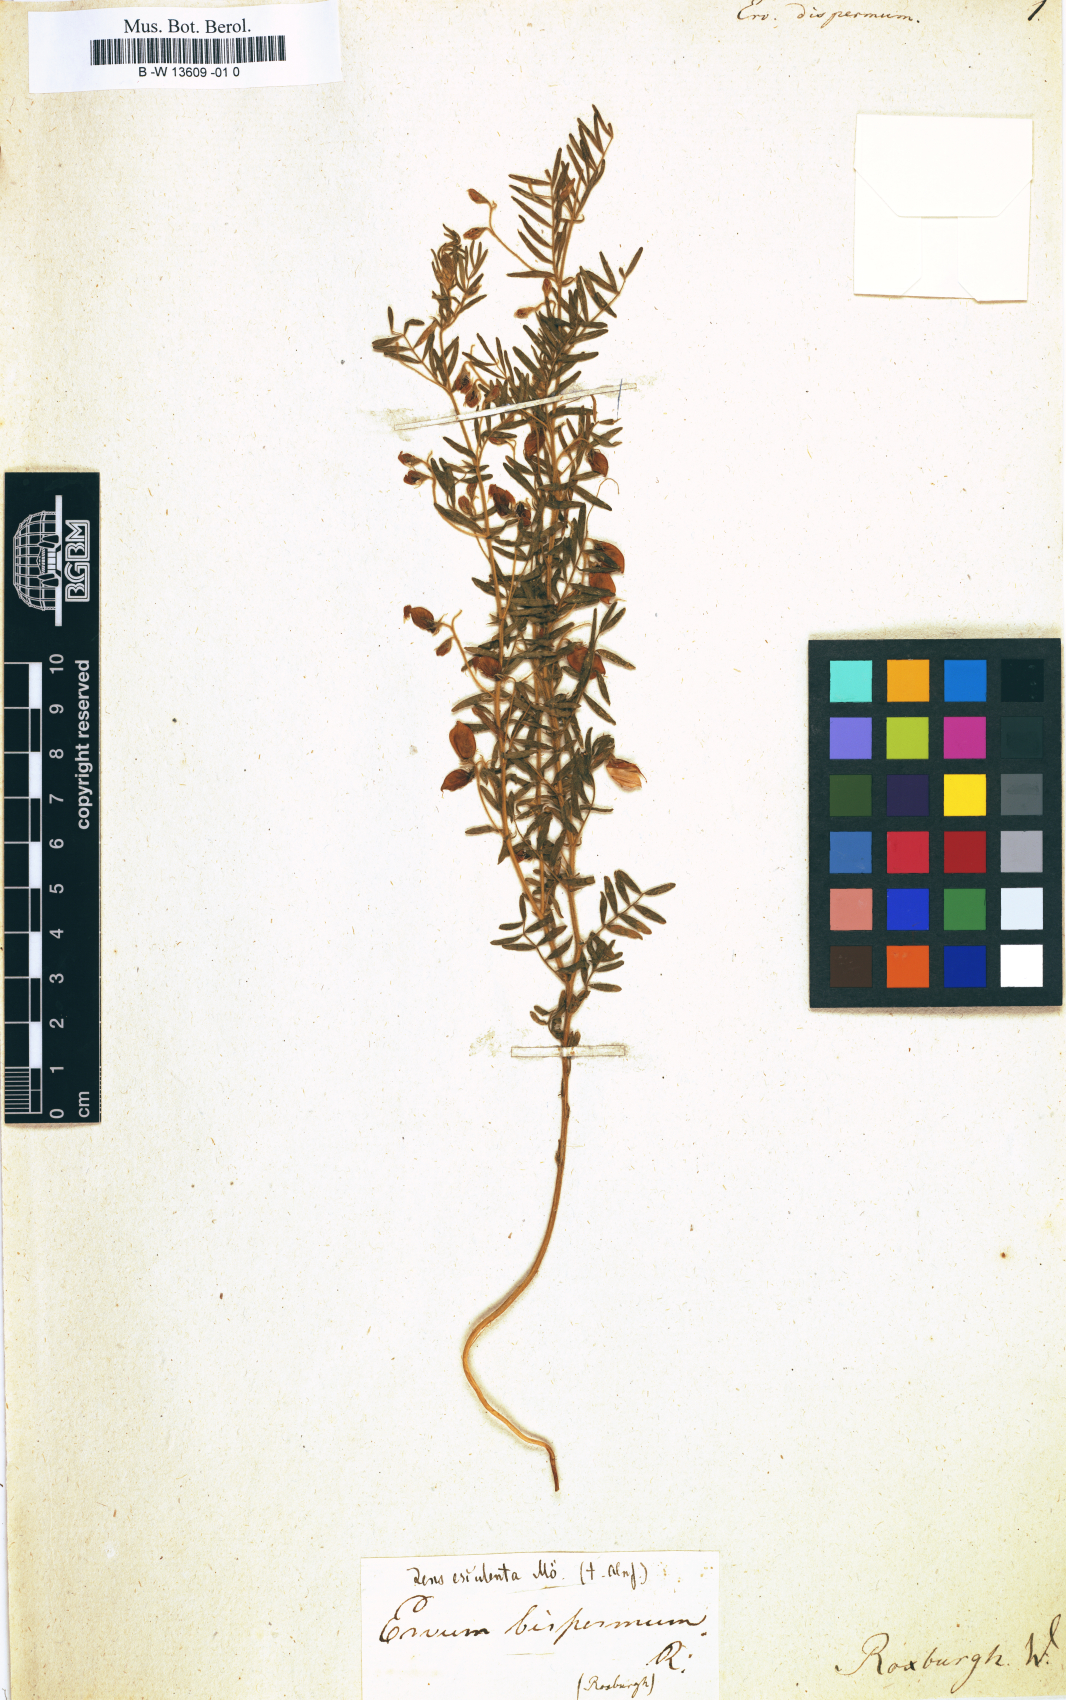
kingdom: Plantae
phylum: Tracheophyta
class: Magnoliopsida
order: Fabales
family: Fabaceae
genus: Vicia
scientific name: Vicia
